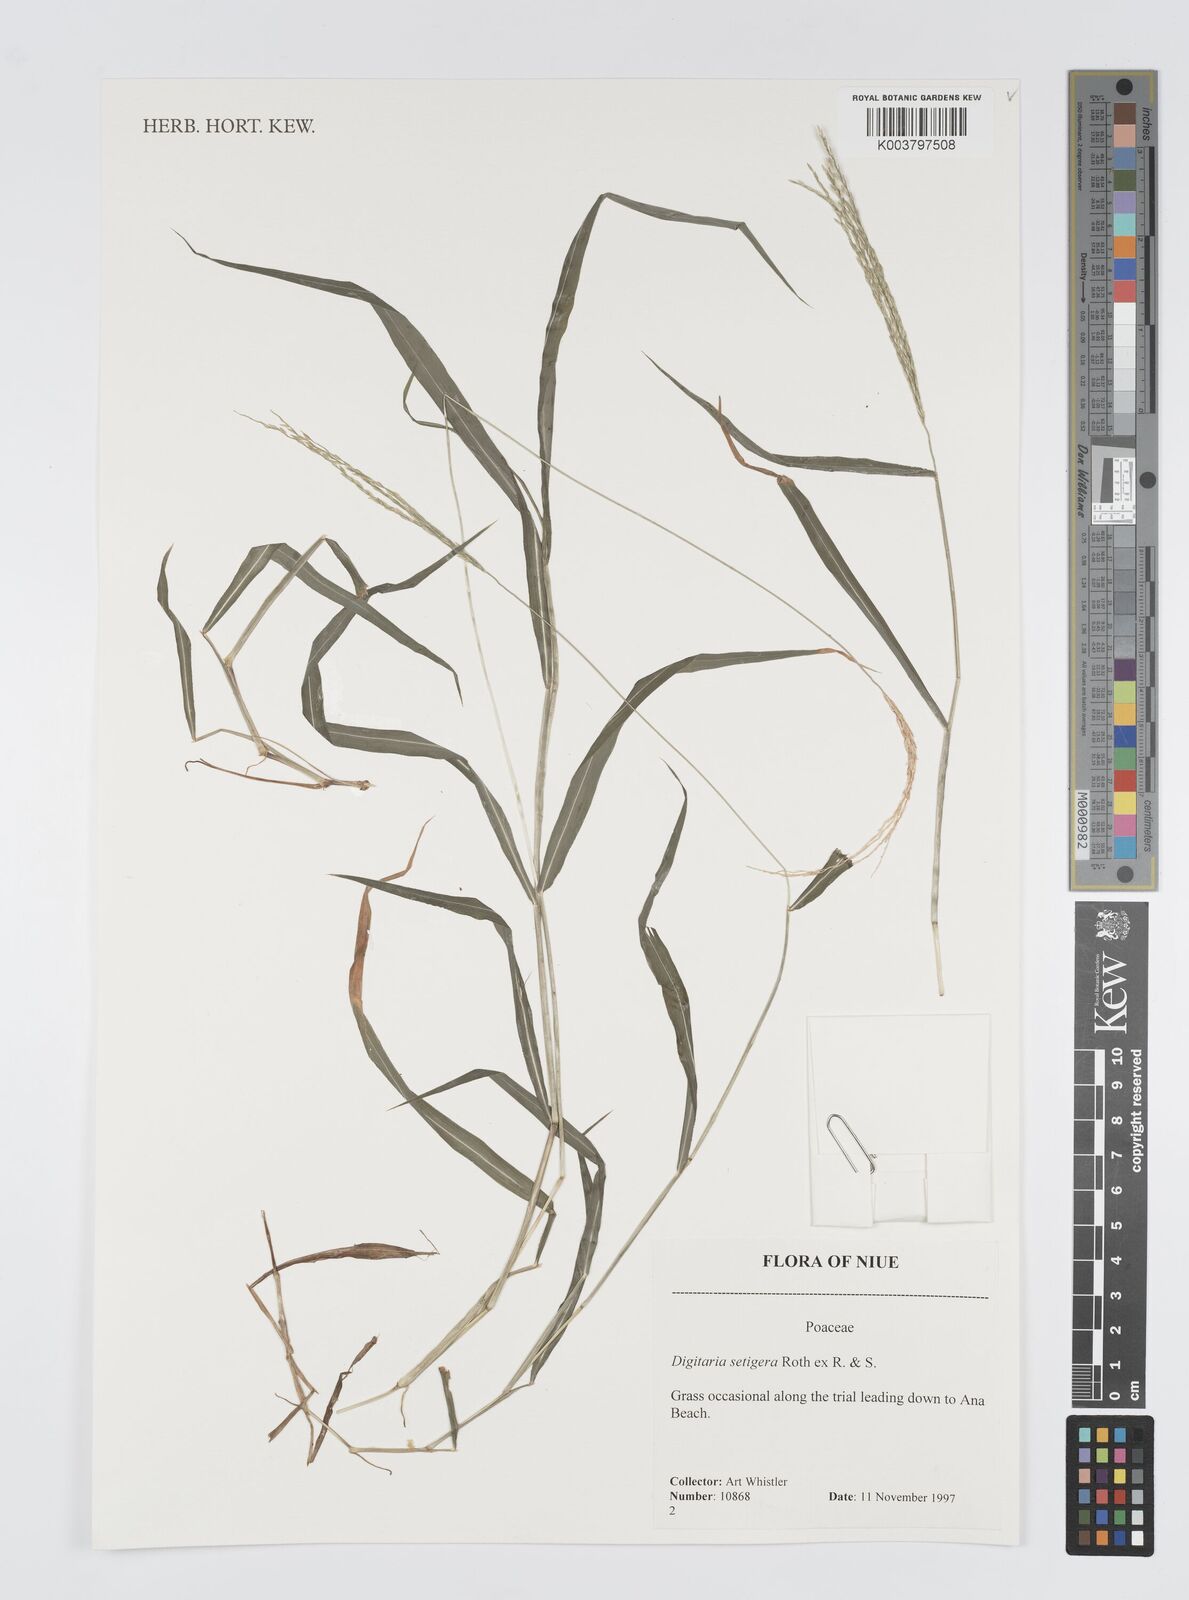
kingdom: Plantae
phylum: Tracheophyta
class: Liliopsida
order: Poales
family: Poaceae
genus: Digitaria
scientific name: Digitaria setigera
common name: East indian crabgrass
